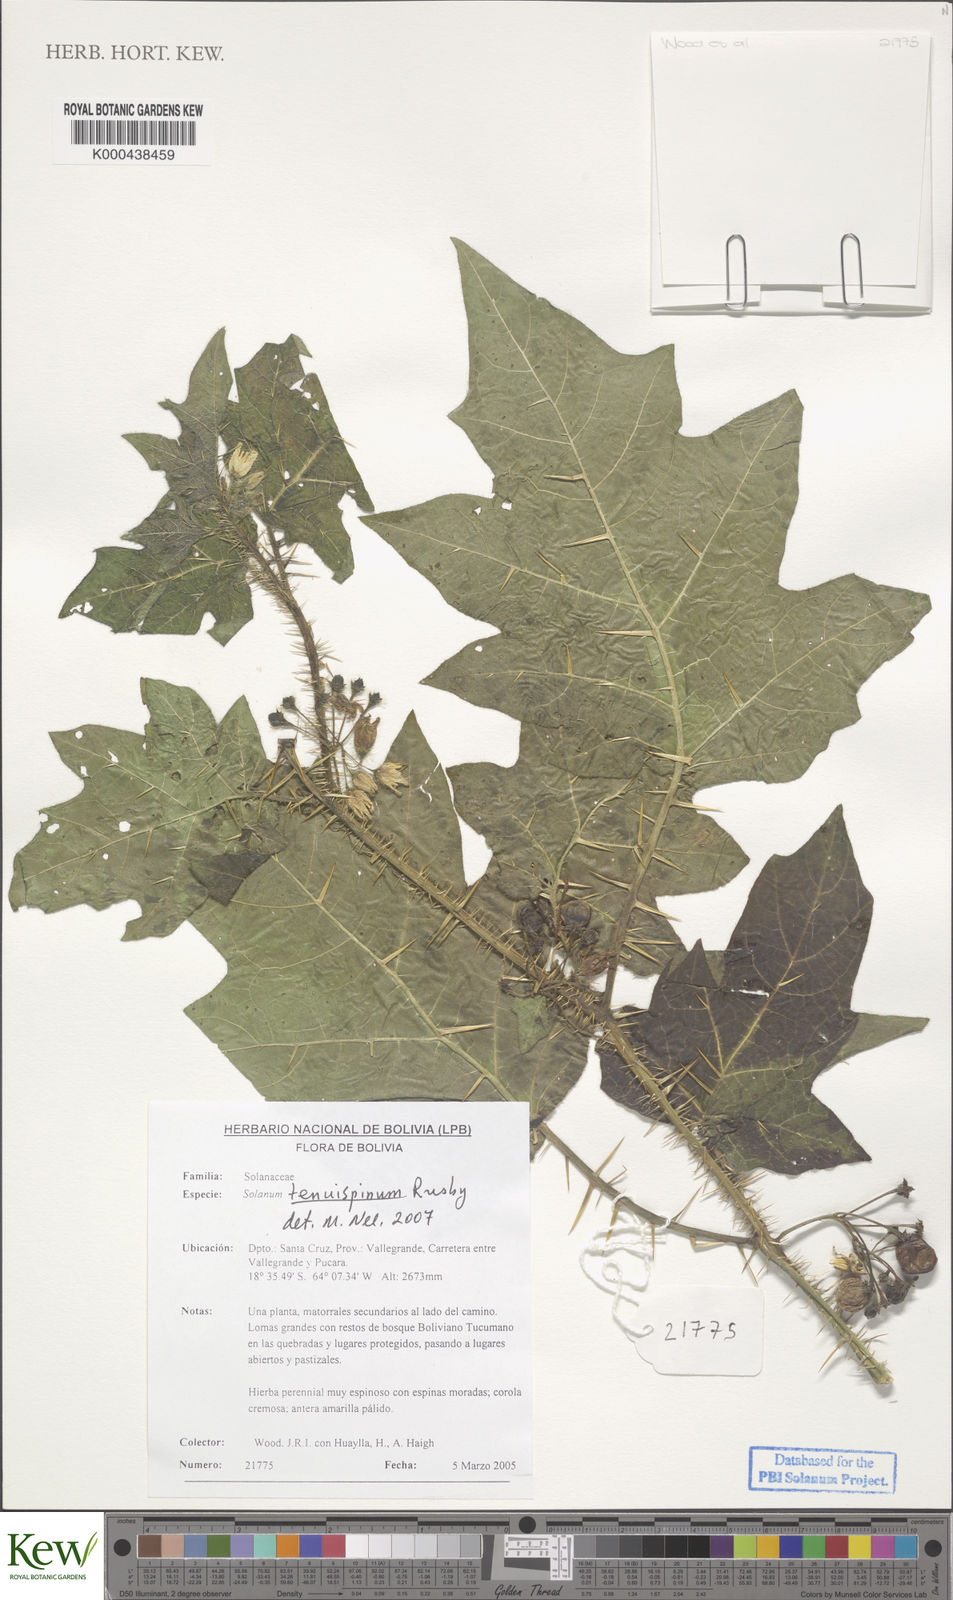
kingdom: Plantae
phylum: Tracheophyta
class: Magnoliopsida
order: Solanales
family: Solanaceae
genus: Solanum
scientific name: Solanum woodii
